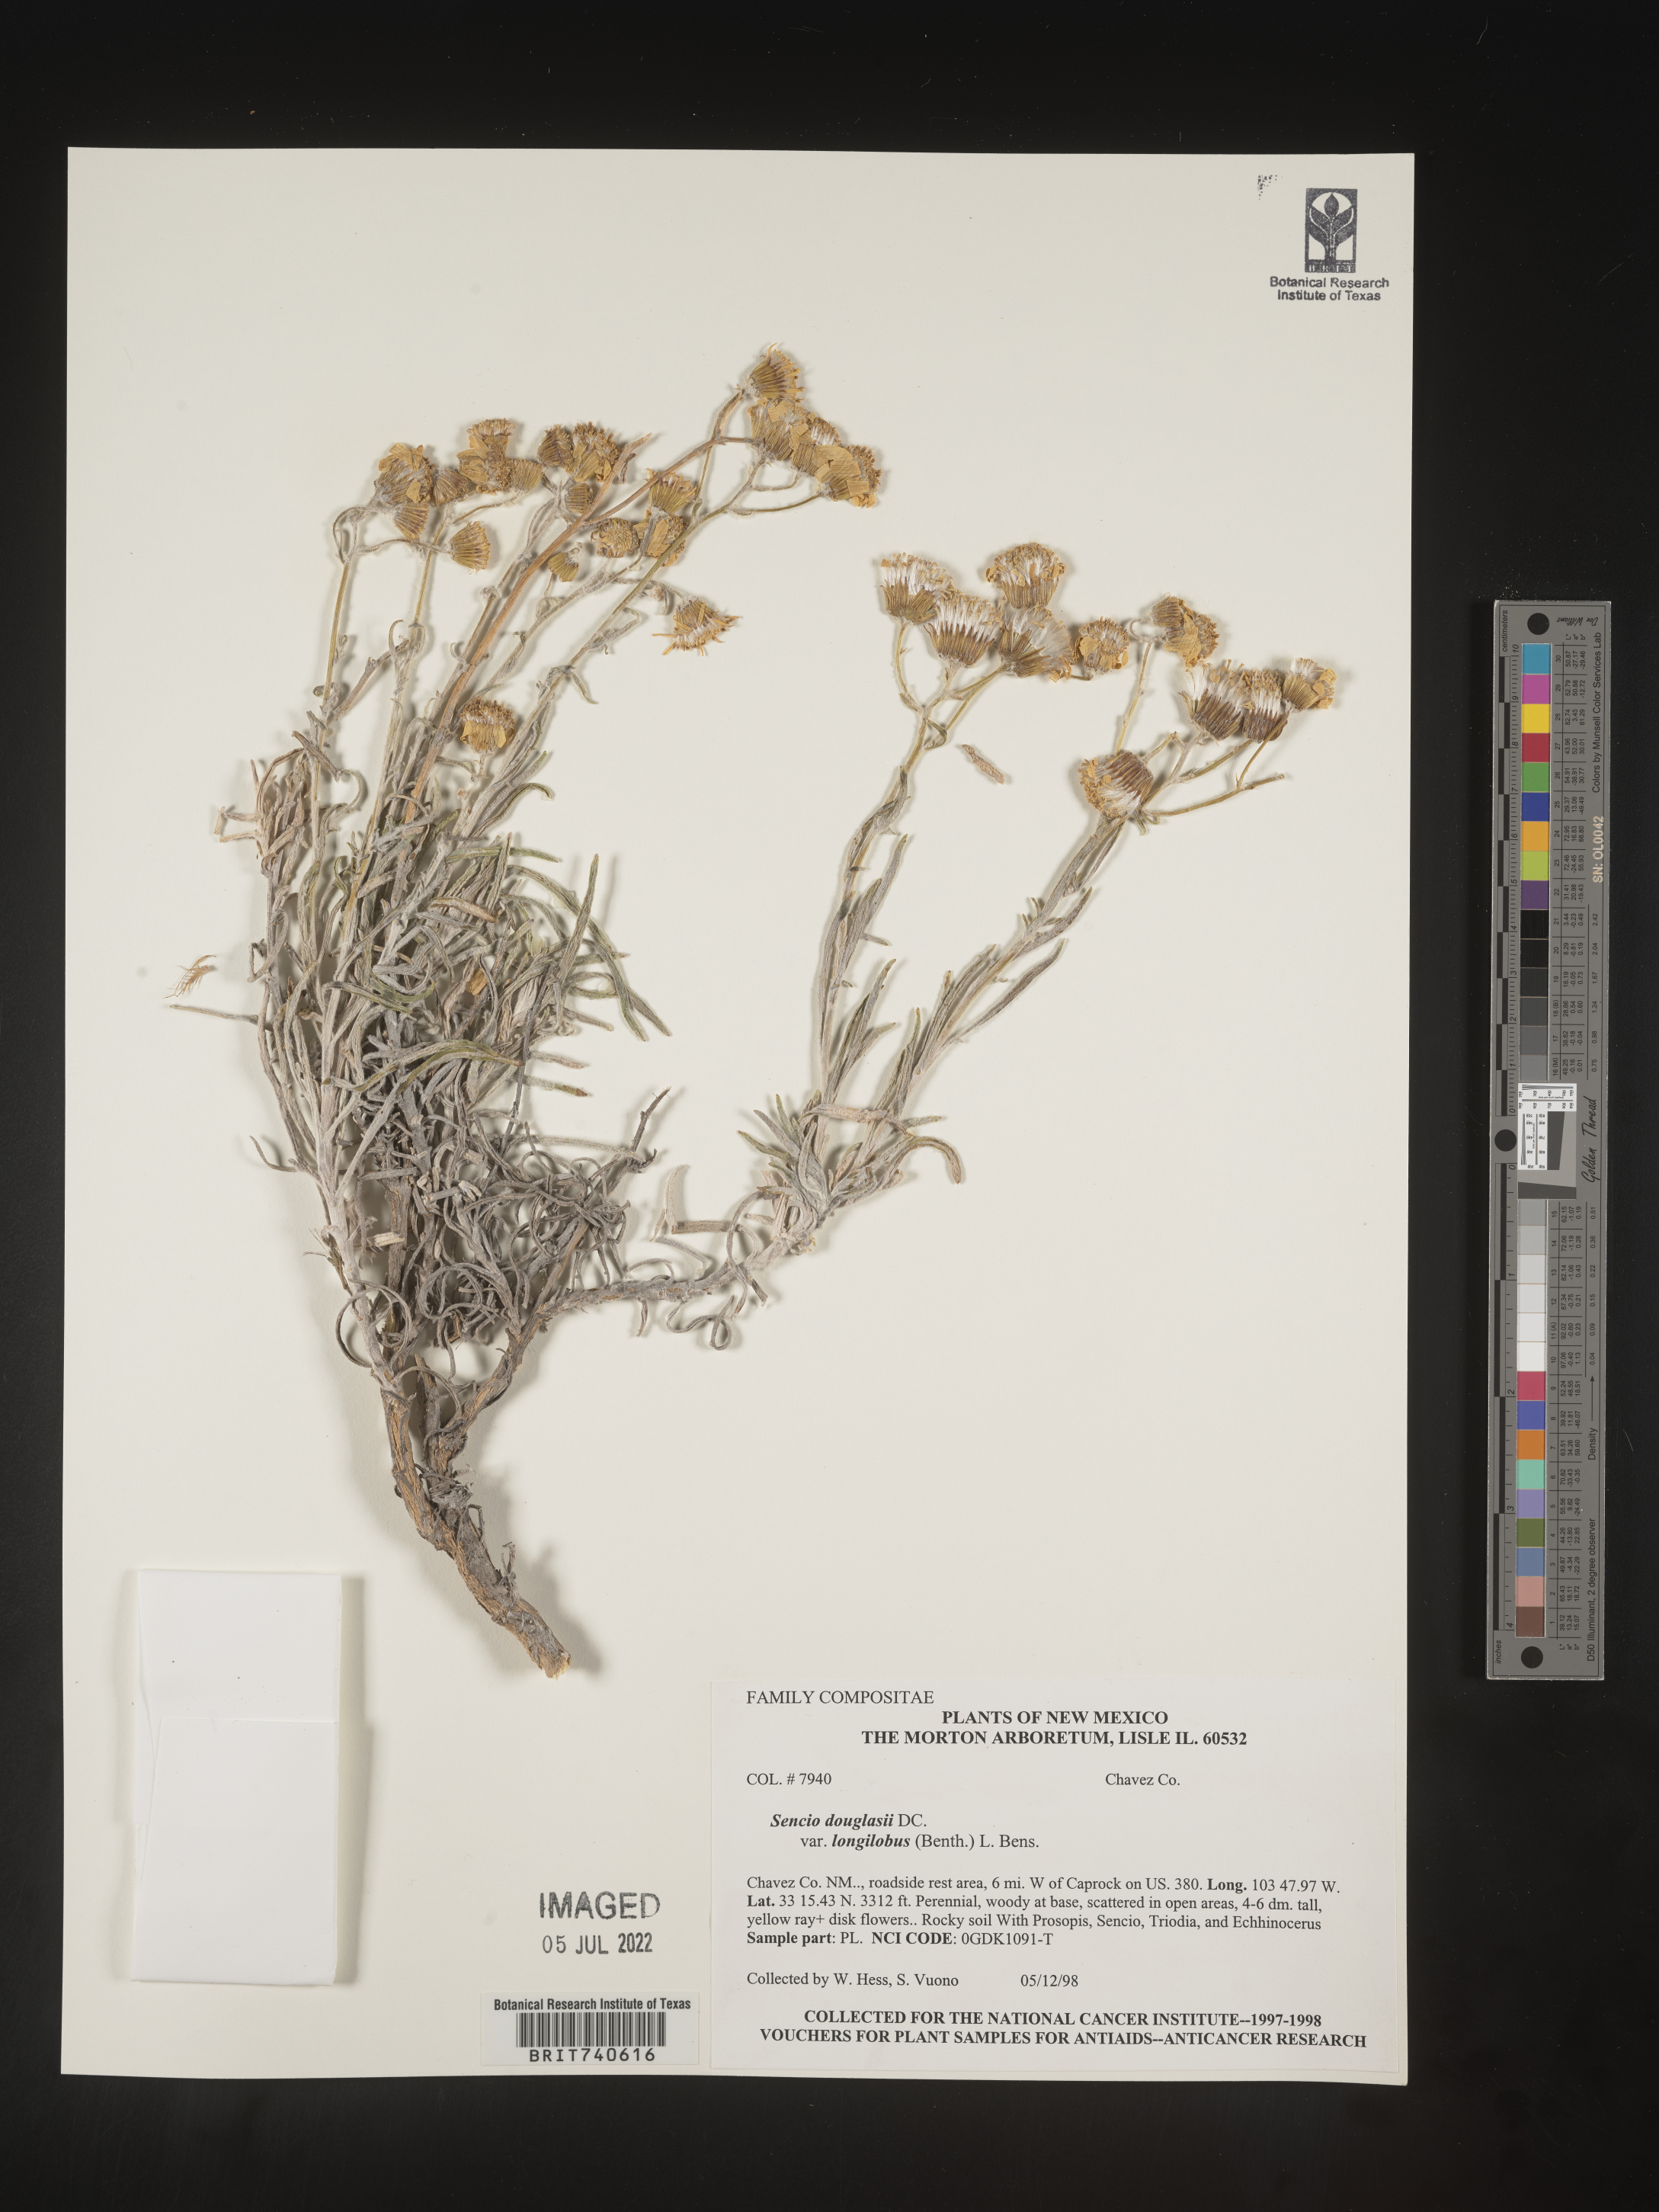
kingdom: Plantae
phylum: Tracheophyta
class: Magnoliopsida
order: Asterales
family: Asteraceae
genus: Senecio
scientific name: Senecio flaccidus
